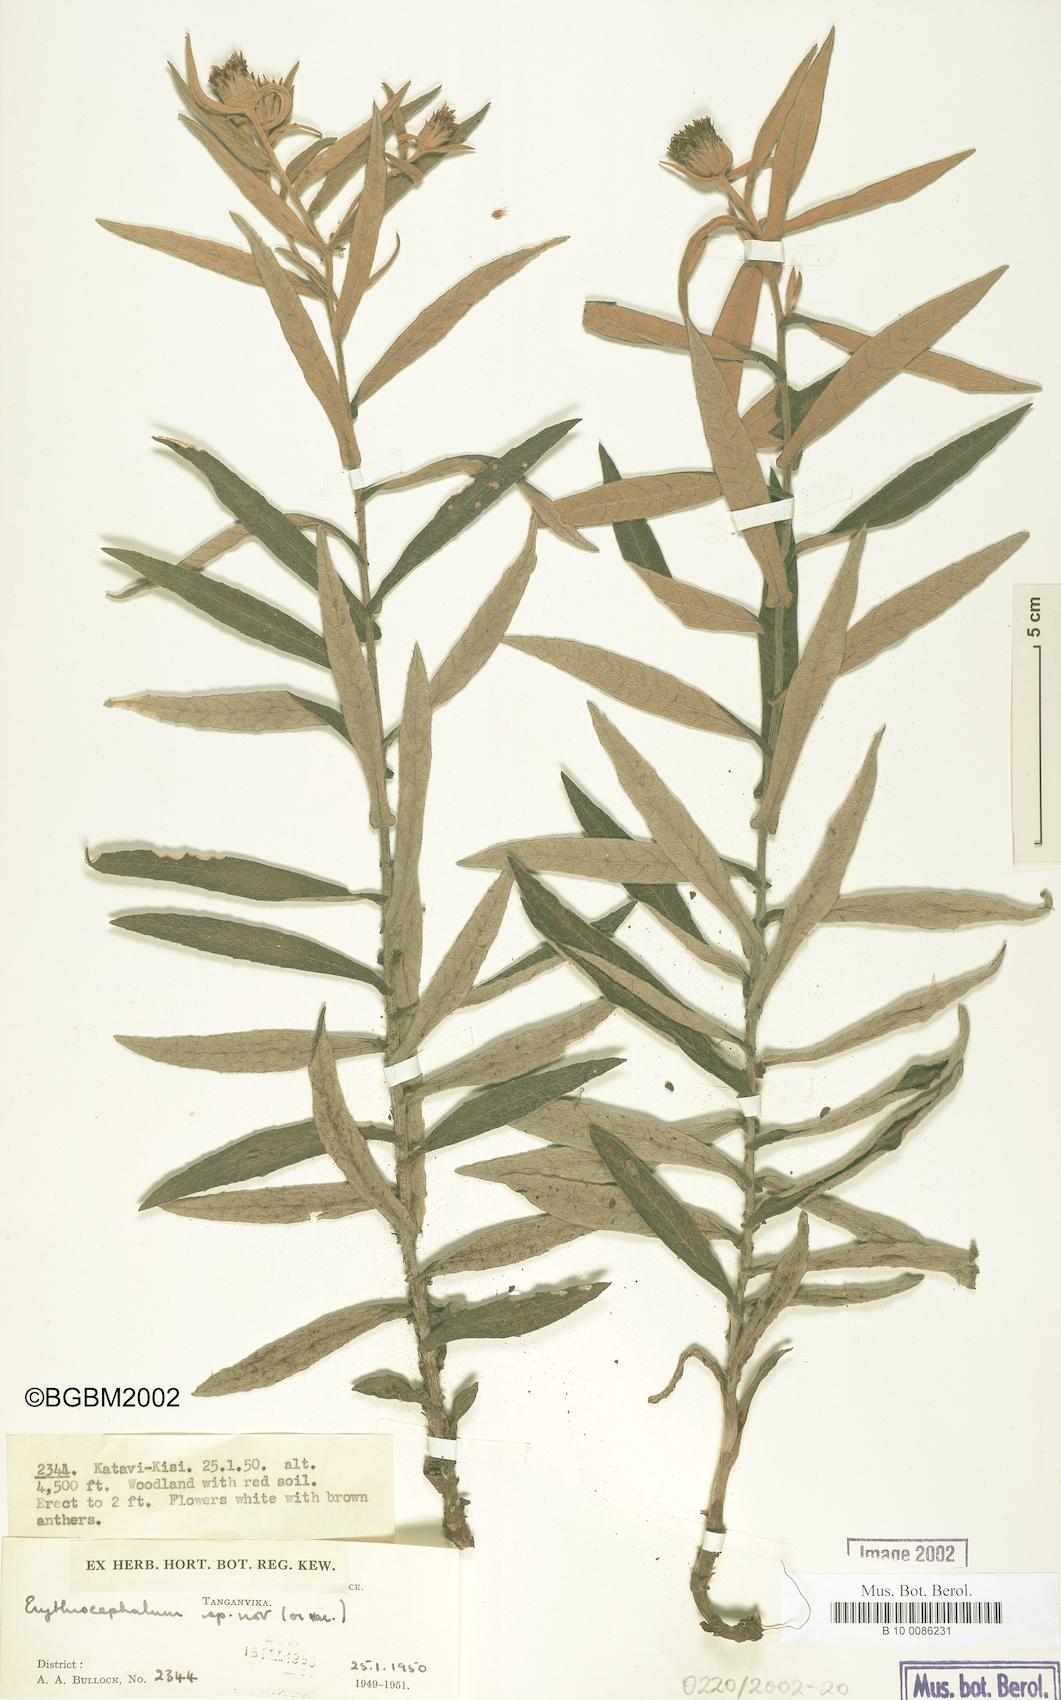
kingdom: Plantae
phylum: Tracheophyta
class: Magnoliopsida
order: Asterales
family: Asteraceae
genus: Erythrocephalum
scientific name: Erythrocephalum
